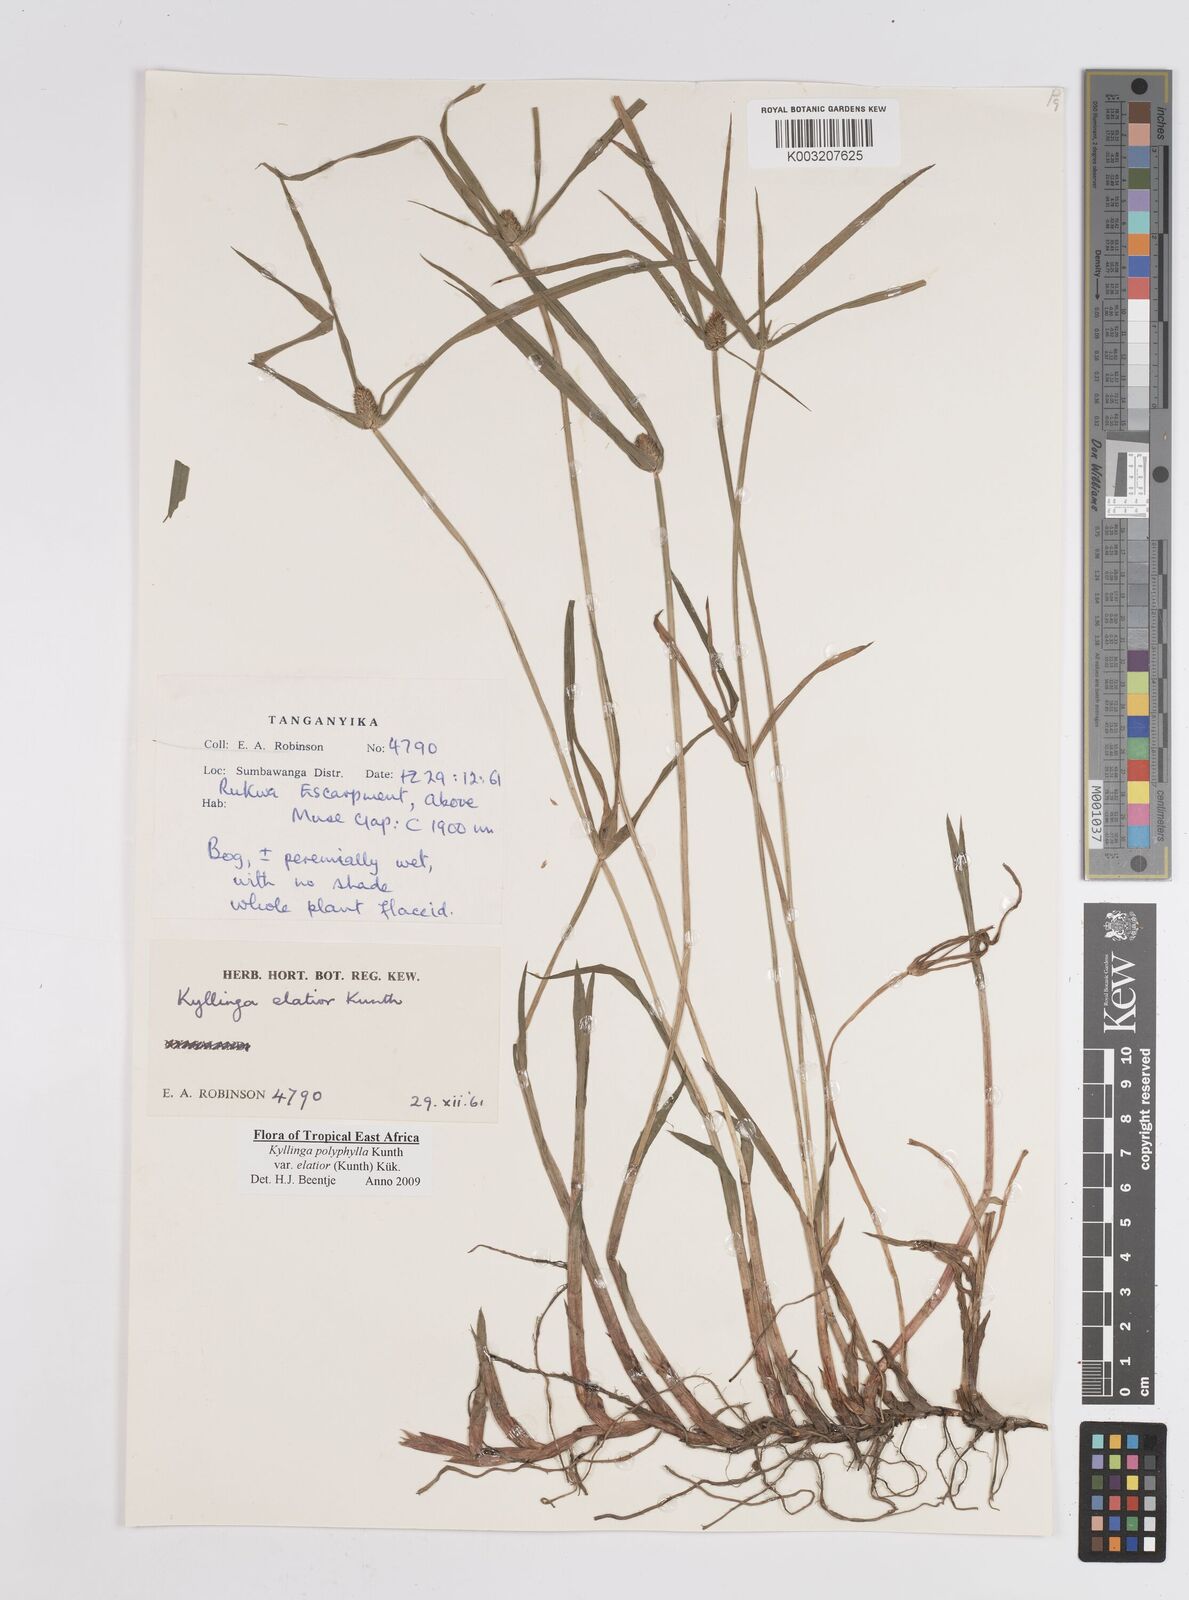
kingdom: Plantae
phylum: Tracheophyta
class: Liliopsida
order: Poales
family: Cyperaceae
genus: Cyperus
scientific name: Cyperus
